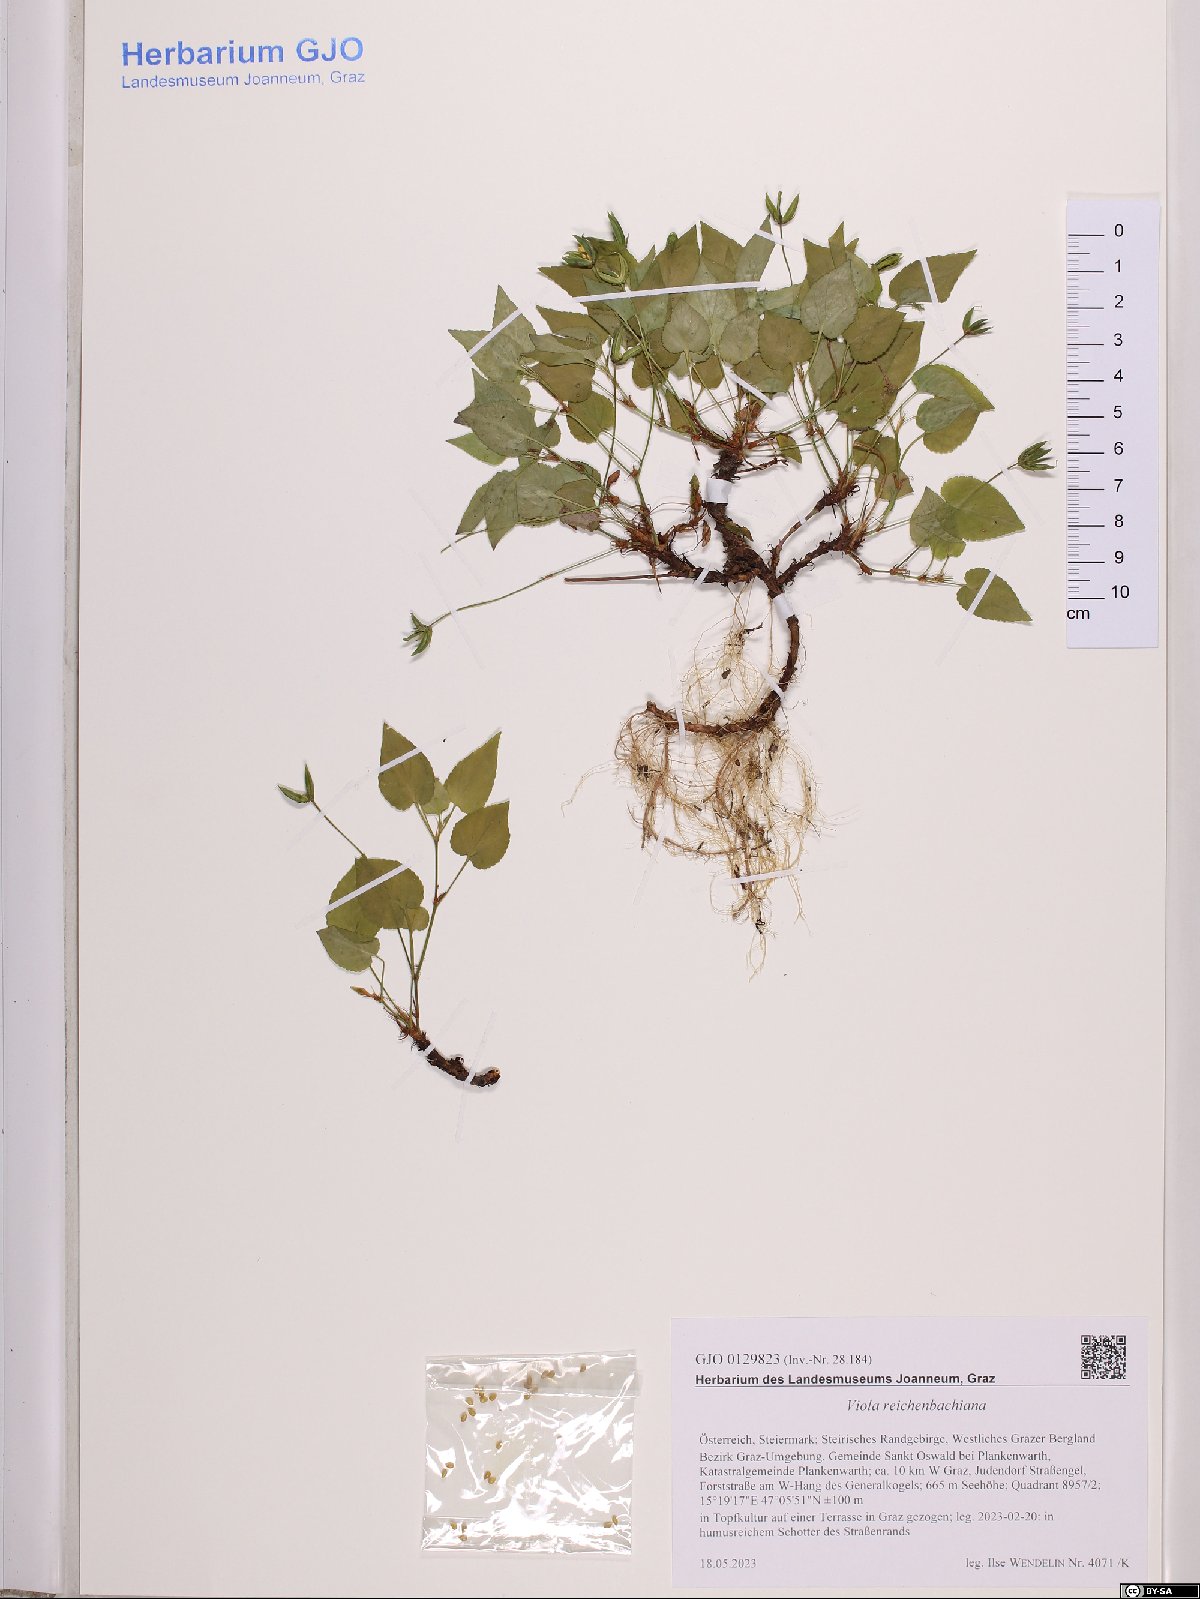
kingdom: Plantae
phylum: Tracheophyta
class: Magnoliopsida
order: Malpighiales
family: Violaceae
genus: Viola
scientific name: Viola reichenbachiana
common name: Early dog-violet
